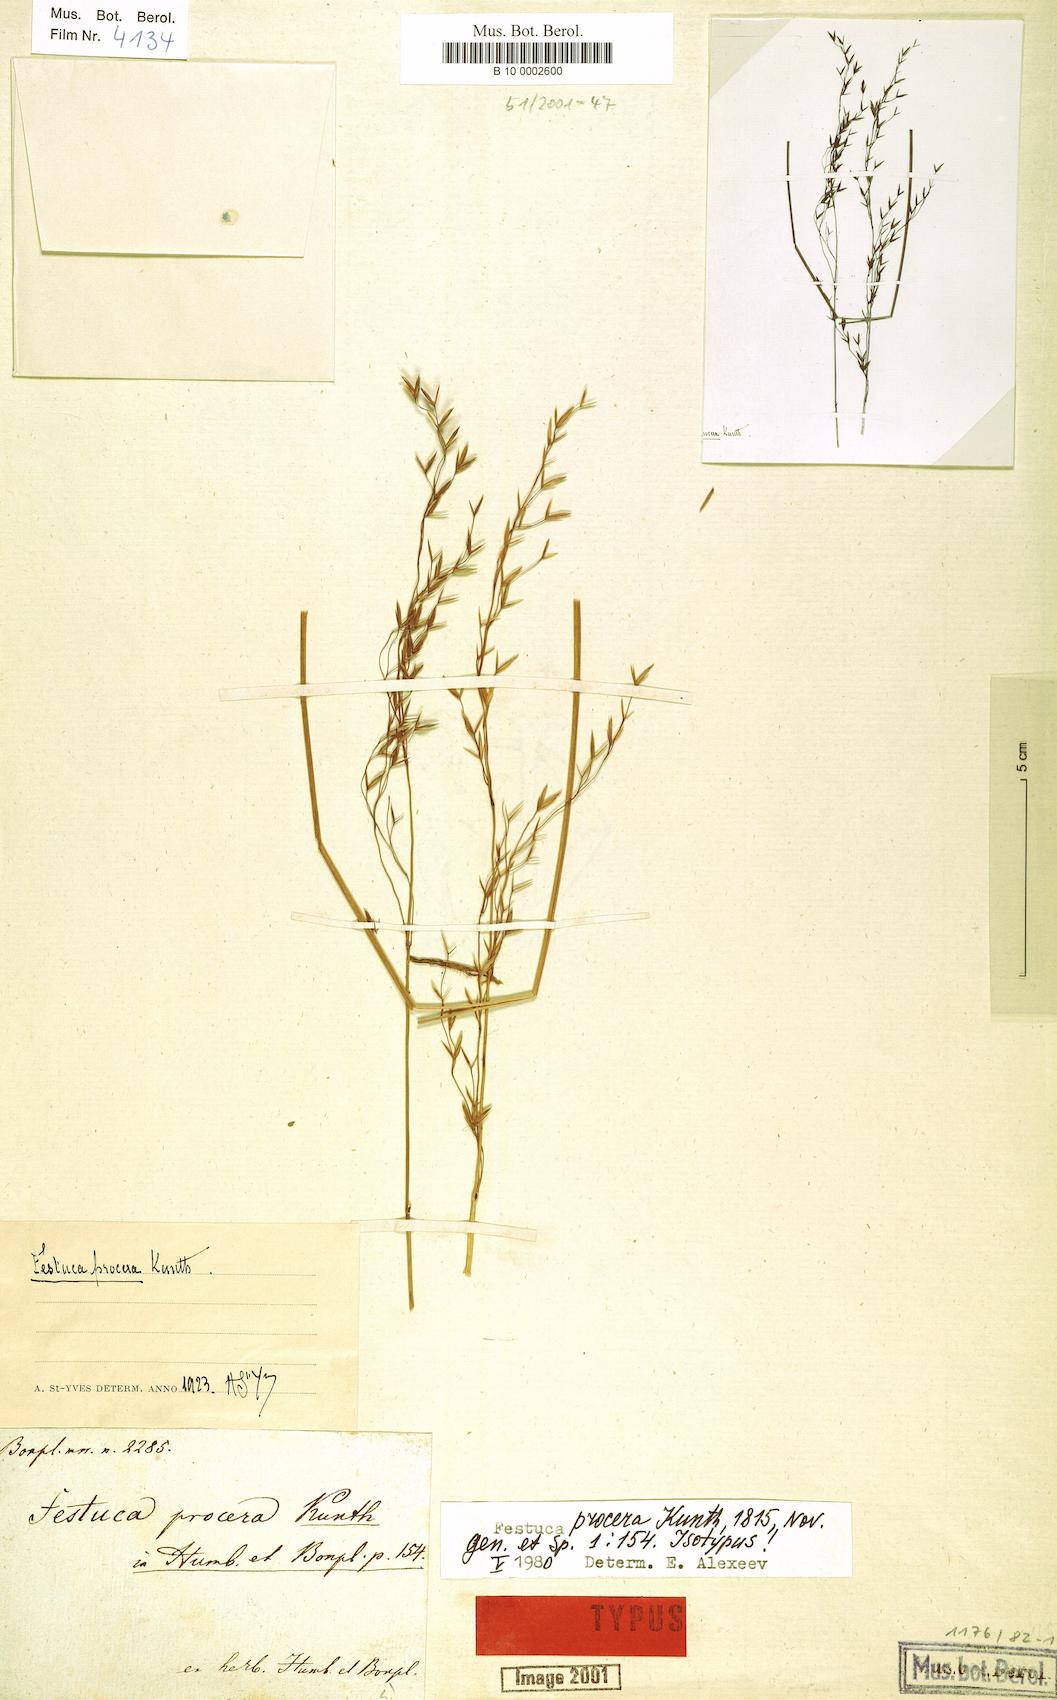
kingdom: Plantae
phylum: Tracheophyta
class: Liliopsida
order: Poales
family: Poaceae
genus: Festuca
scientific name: Festuca procera
